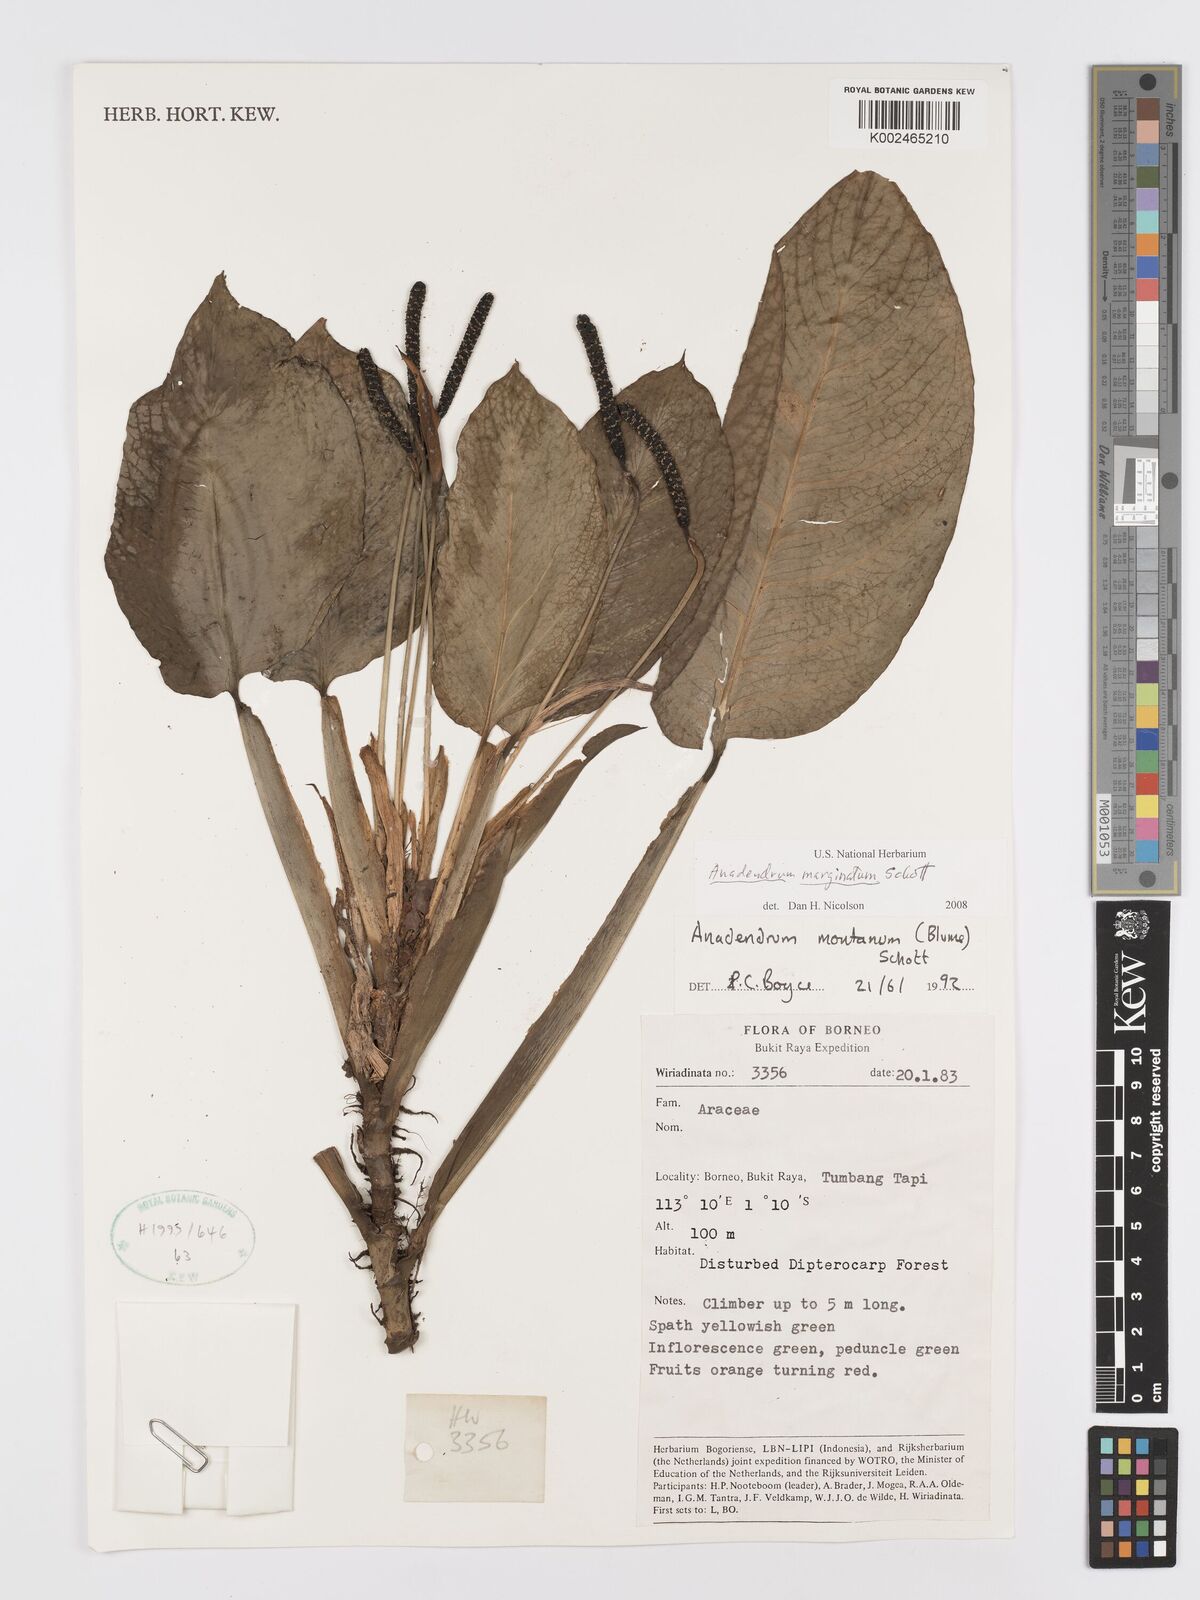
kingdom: Plantae
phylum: Tracheophyta
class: Liliopsida
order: Alismatales
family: Araceae
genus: Anadendrum
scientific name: Anadendrum marginatum
